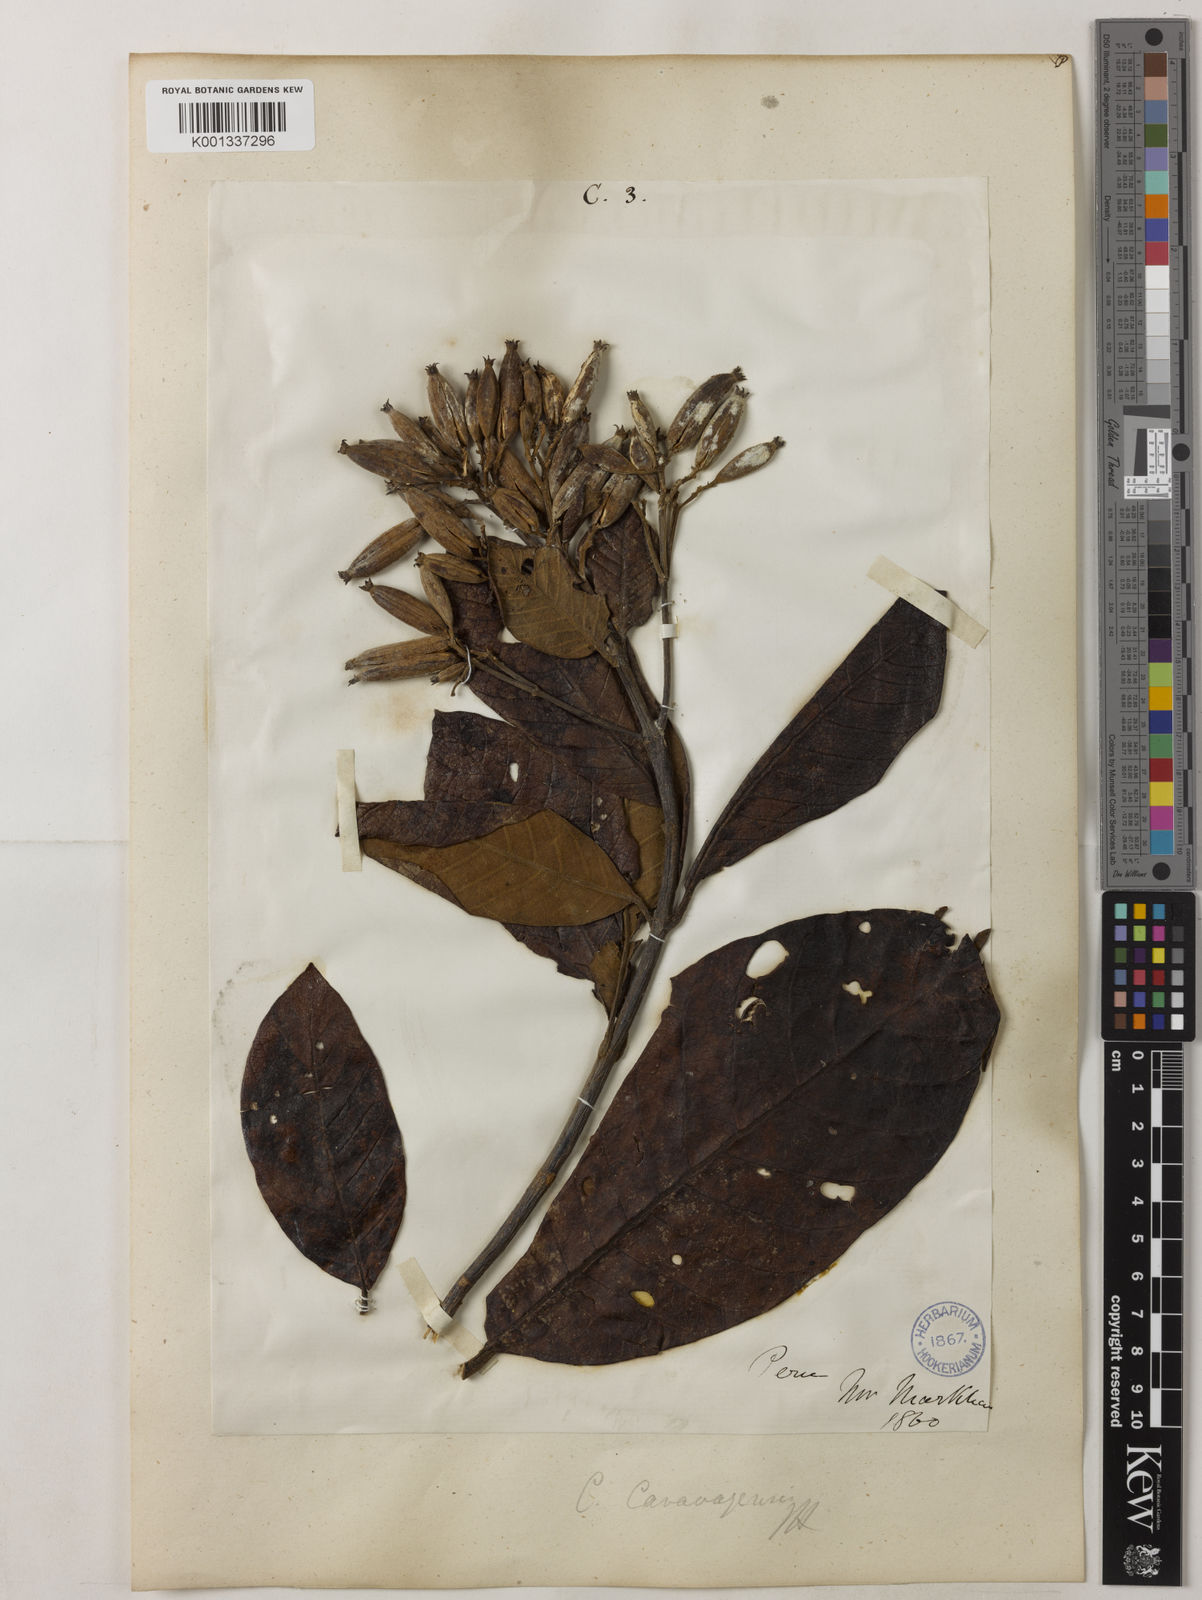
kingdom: Plantae
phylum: Tracheophyta
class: Magnoliopsida
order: Gentianales
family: Rubiaceae
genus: Cinchona
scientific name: Cinchona calisaya
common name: Ledgerbark
